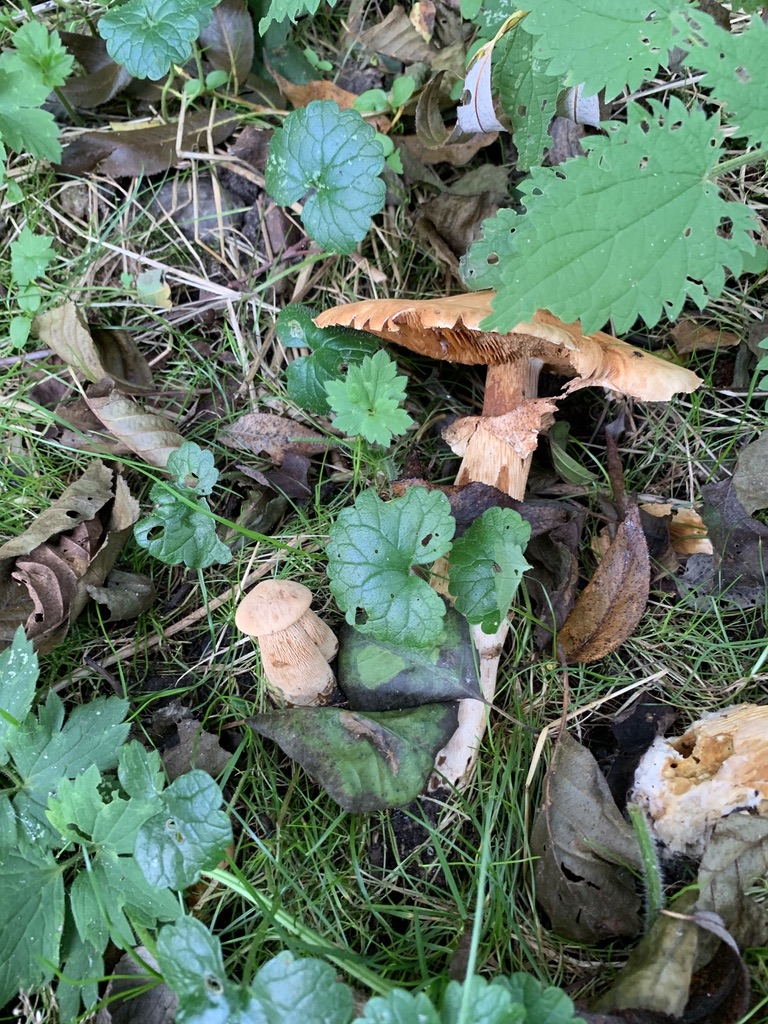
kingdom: Fungi
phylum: Basidiomycota
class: Agaricomycetes
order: Agaricales
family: Tricholomataceae
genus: Phaeolepiota
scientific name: Phaeolepiota aurea
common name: gyldenhat
